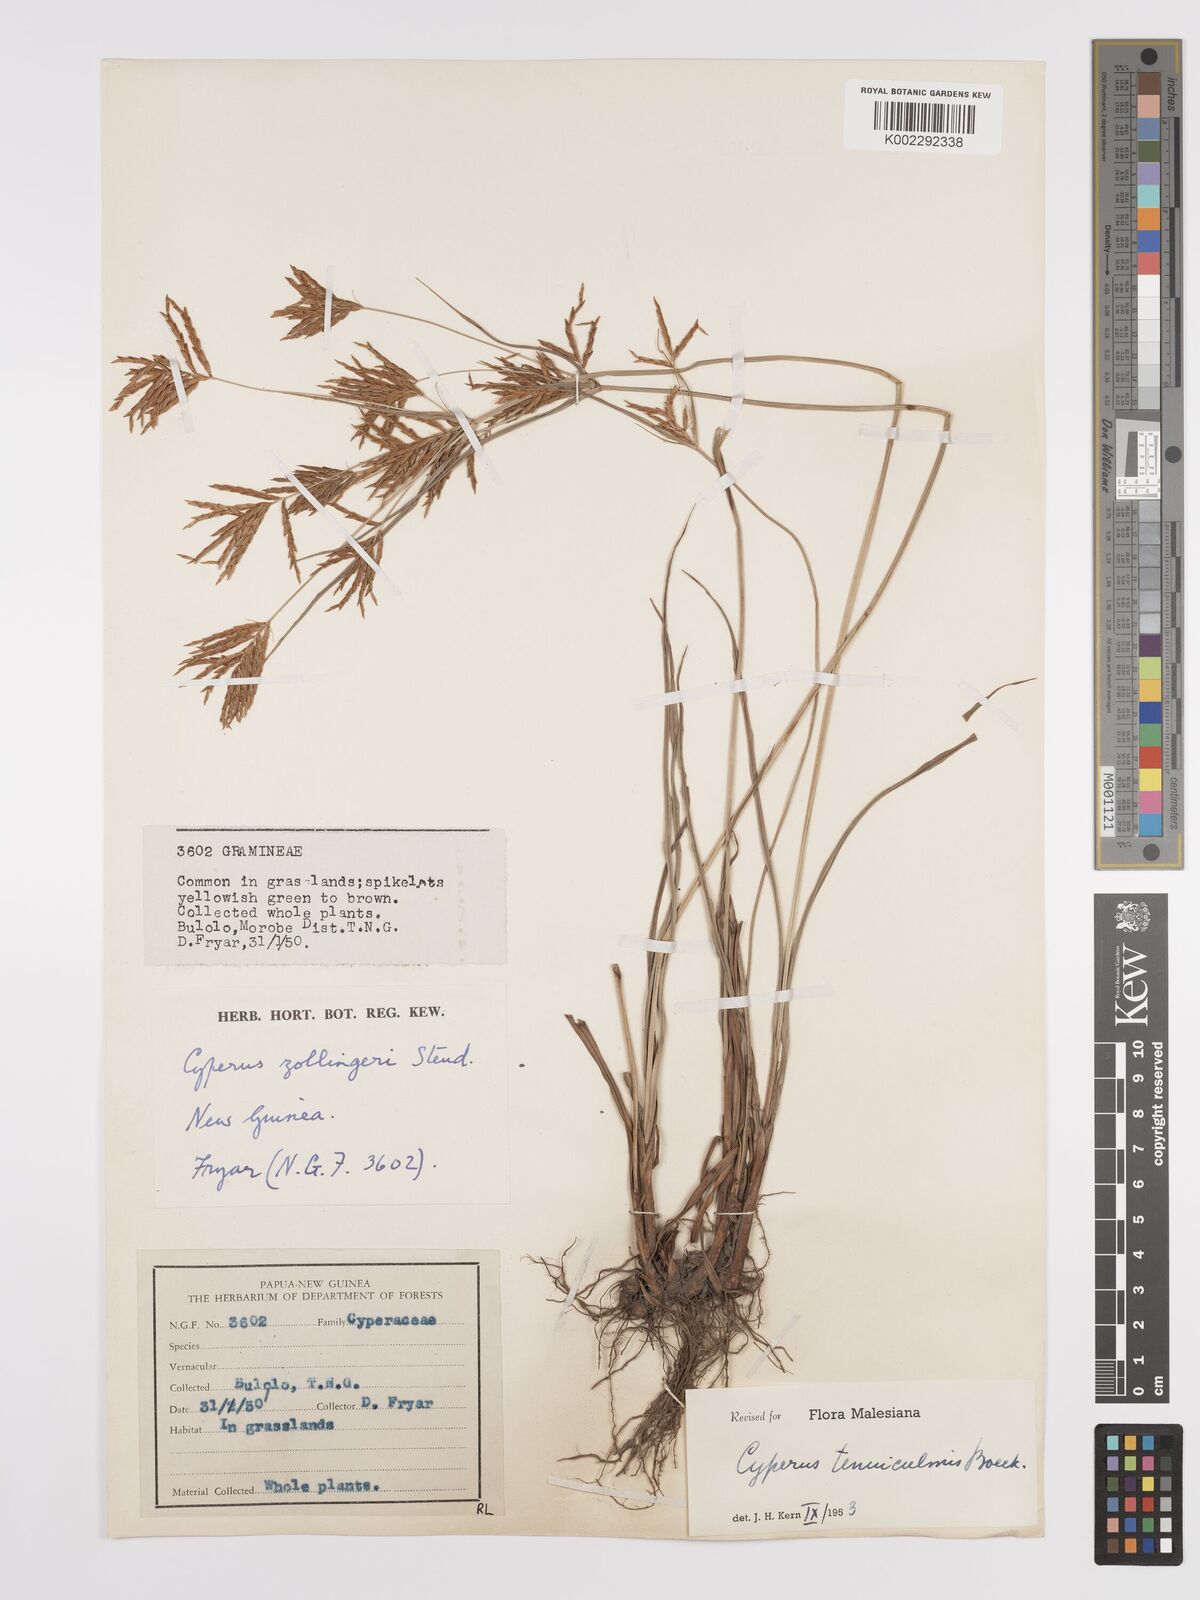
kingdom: Plantae
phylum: Tracheophyta
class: Liliopsida
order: Poales
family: Cyperaceae
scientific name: Cyperaceae
